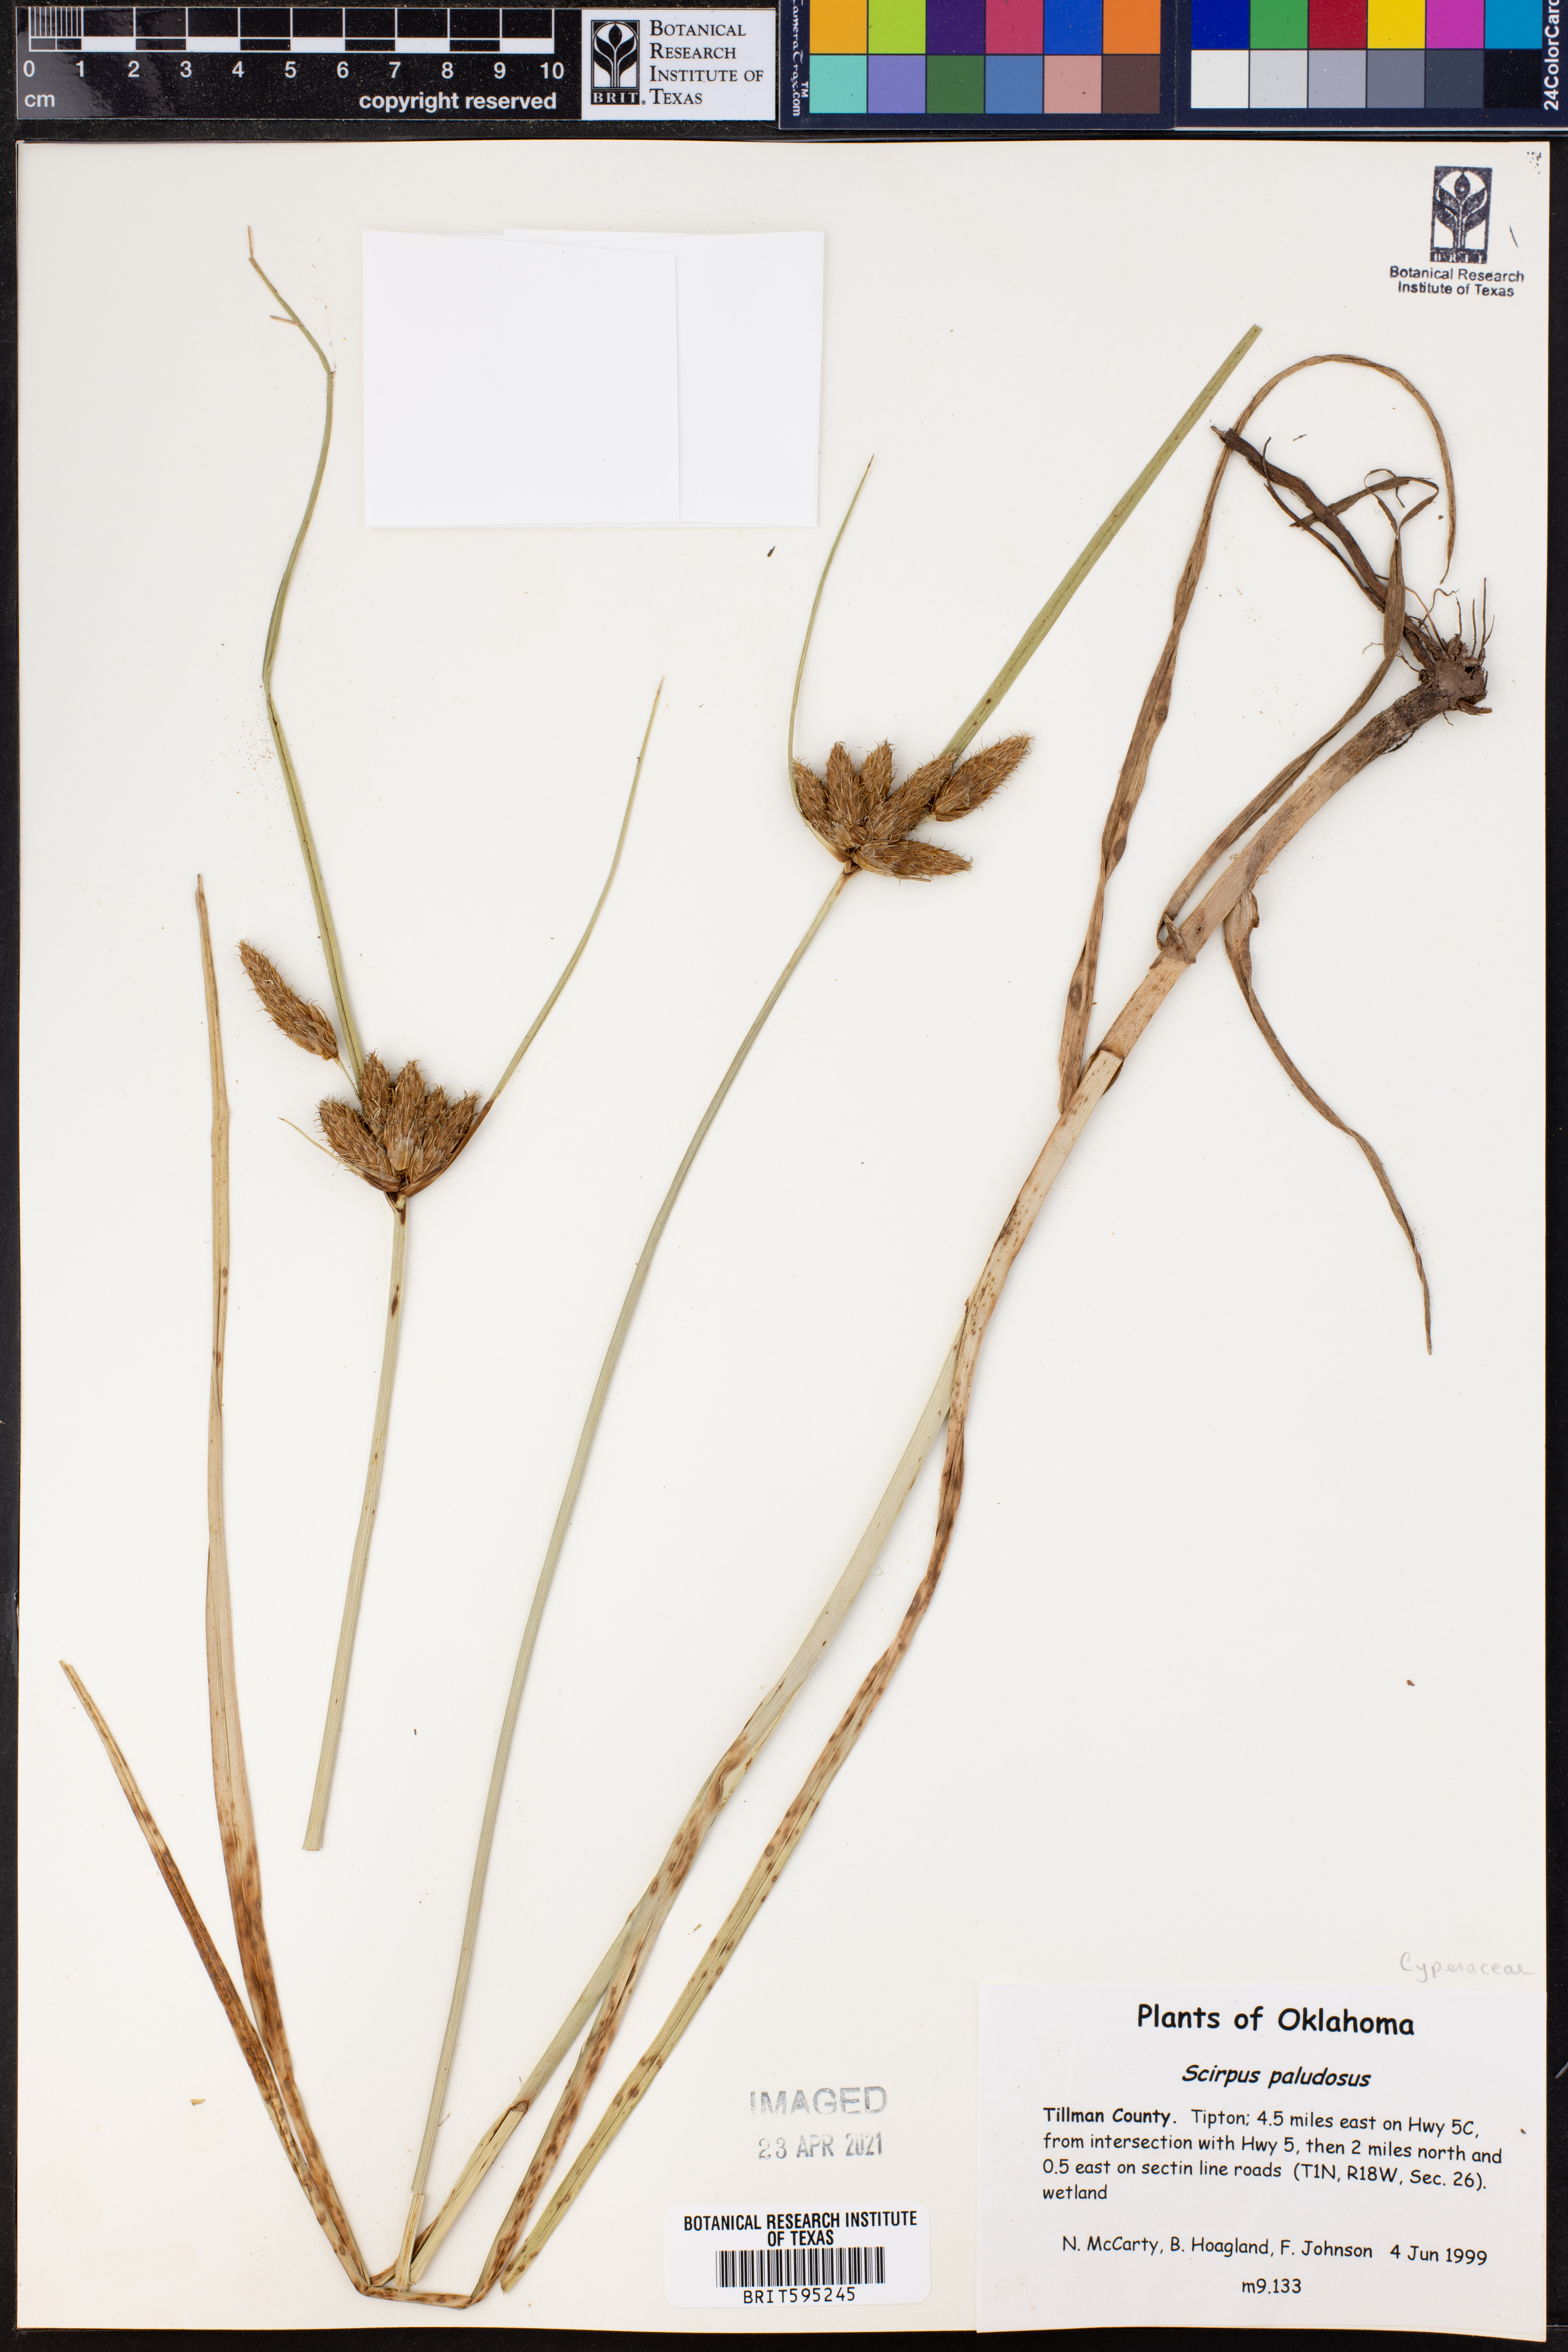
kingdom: Plantae
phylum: Tracheophyta
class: Liliopsida
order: Poales
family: Cyperaceae
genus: Bolboschoenus
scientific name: Bolboschoenus maritimus
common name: Sea club-rush
